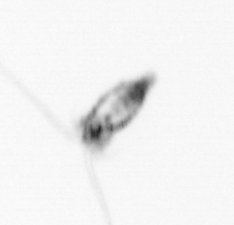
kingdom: Animalia
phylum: Arthropoda
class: Copepoda
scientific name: Copepoda
